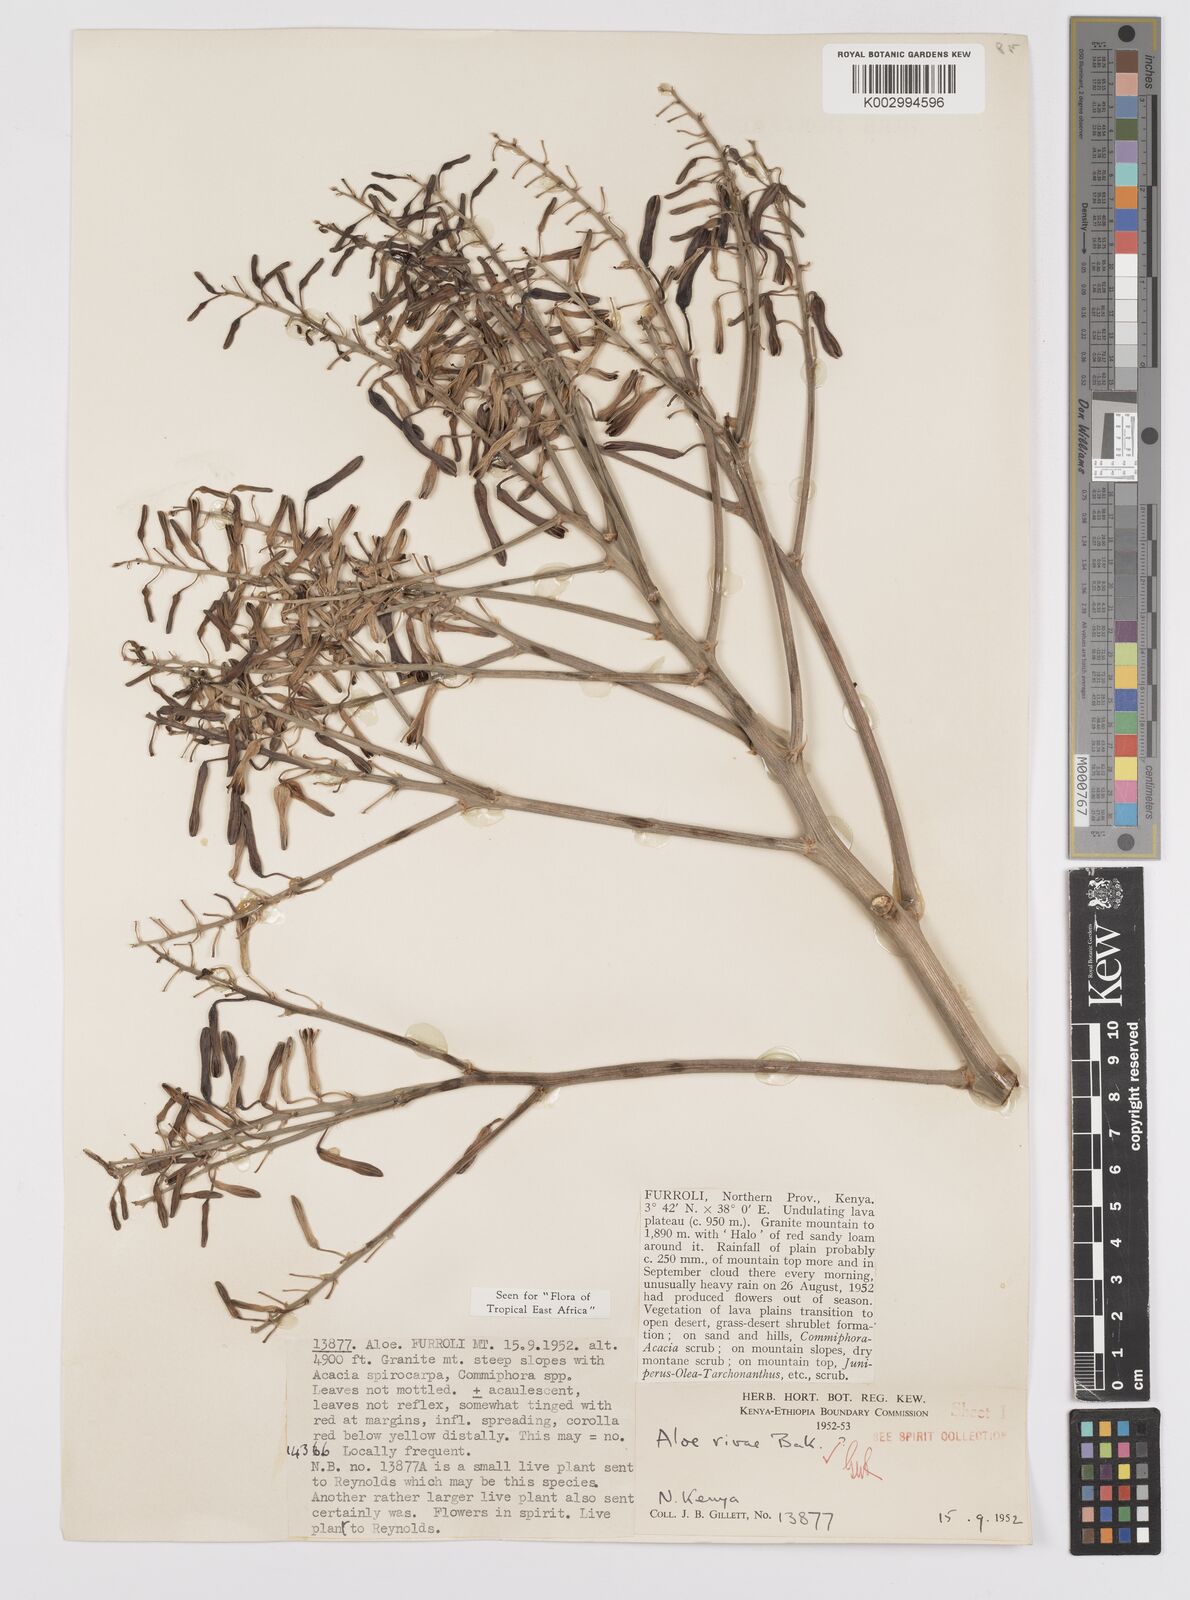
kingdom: Plantae
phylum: Tracheophyta
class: Liliopsida
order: Asparagales
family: Asphodelaceae
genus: Aloe
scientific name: Aloe rivae
